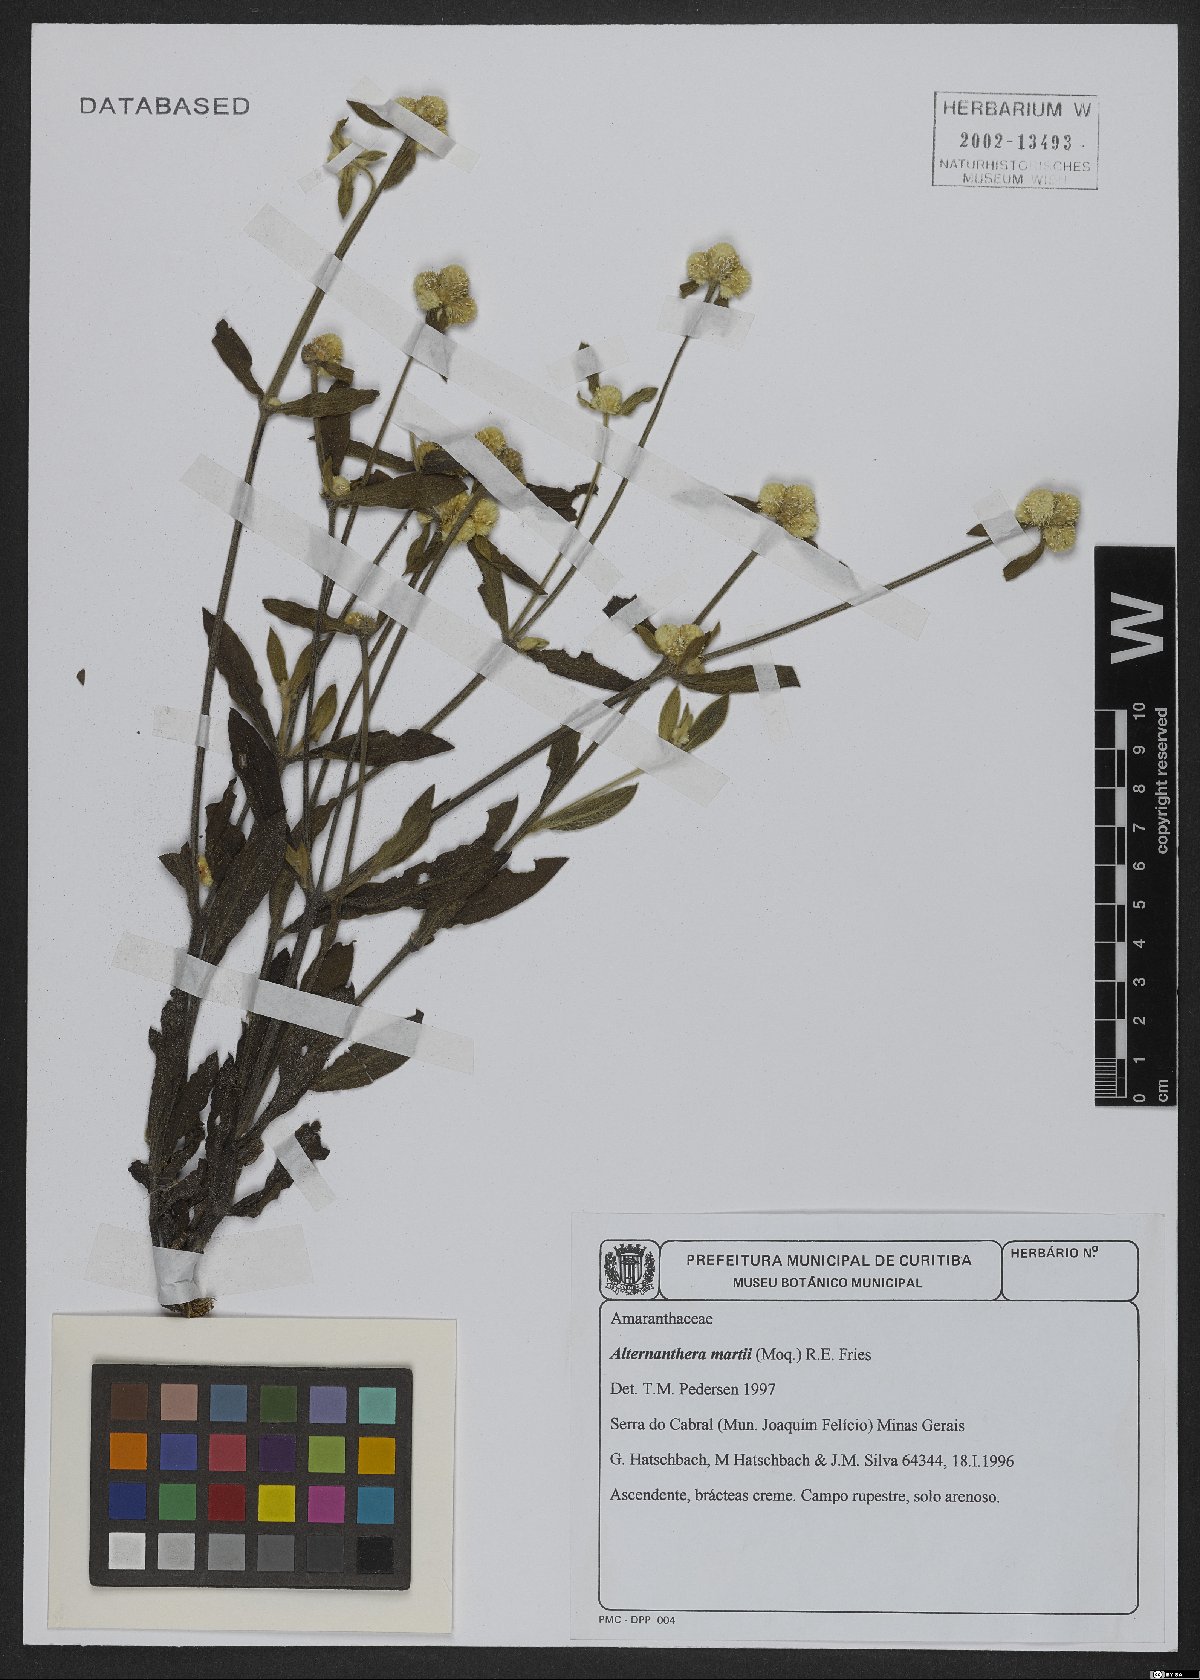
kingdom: Plantae
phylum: Tracheophyta
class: Magnoliopsida
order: Caryophyllales
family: Amaranthaceae
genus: Alternanthera
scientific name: Alternanthera martii
